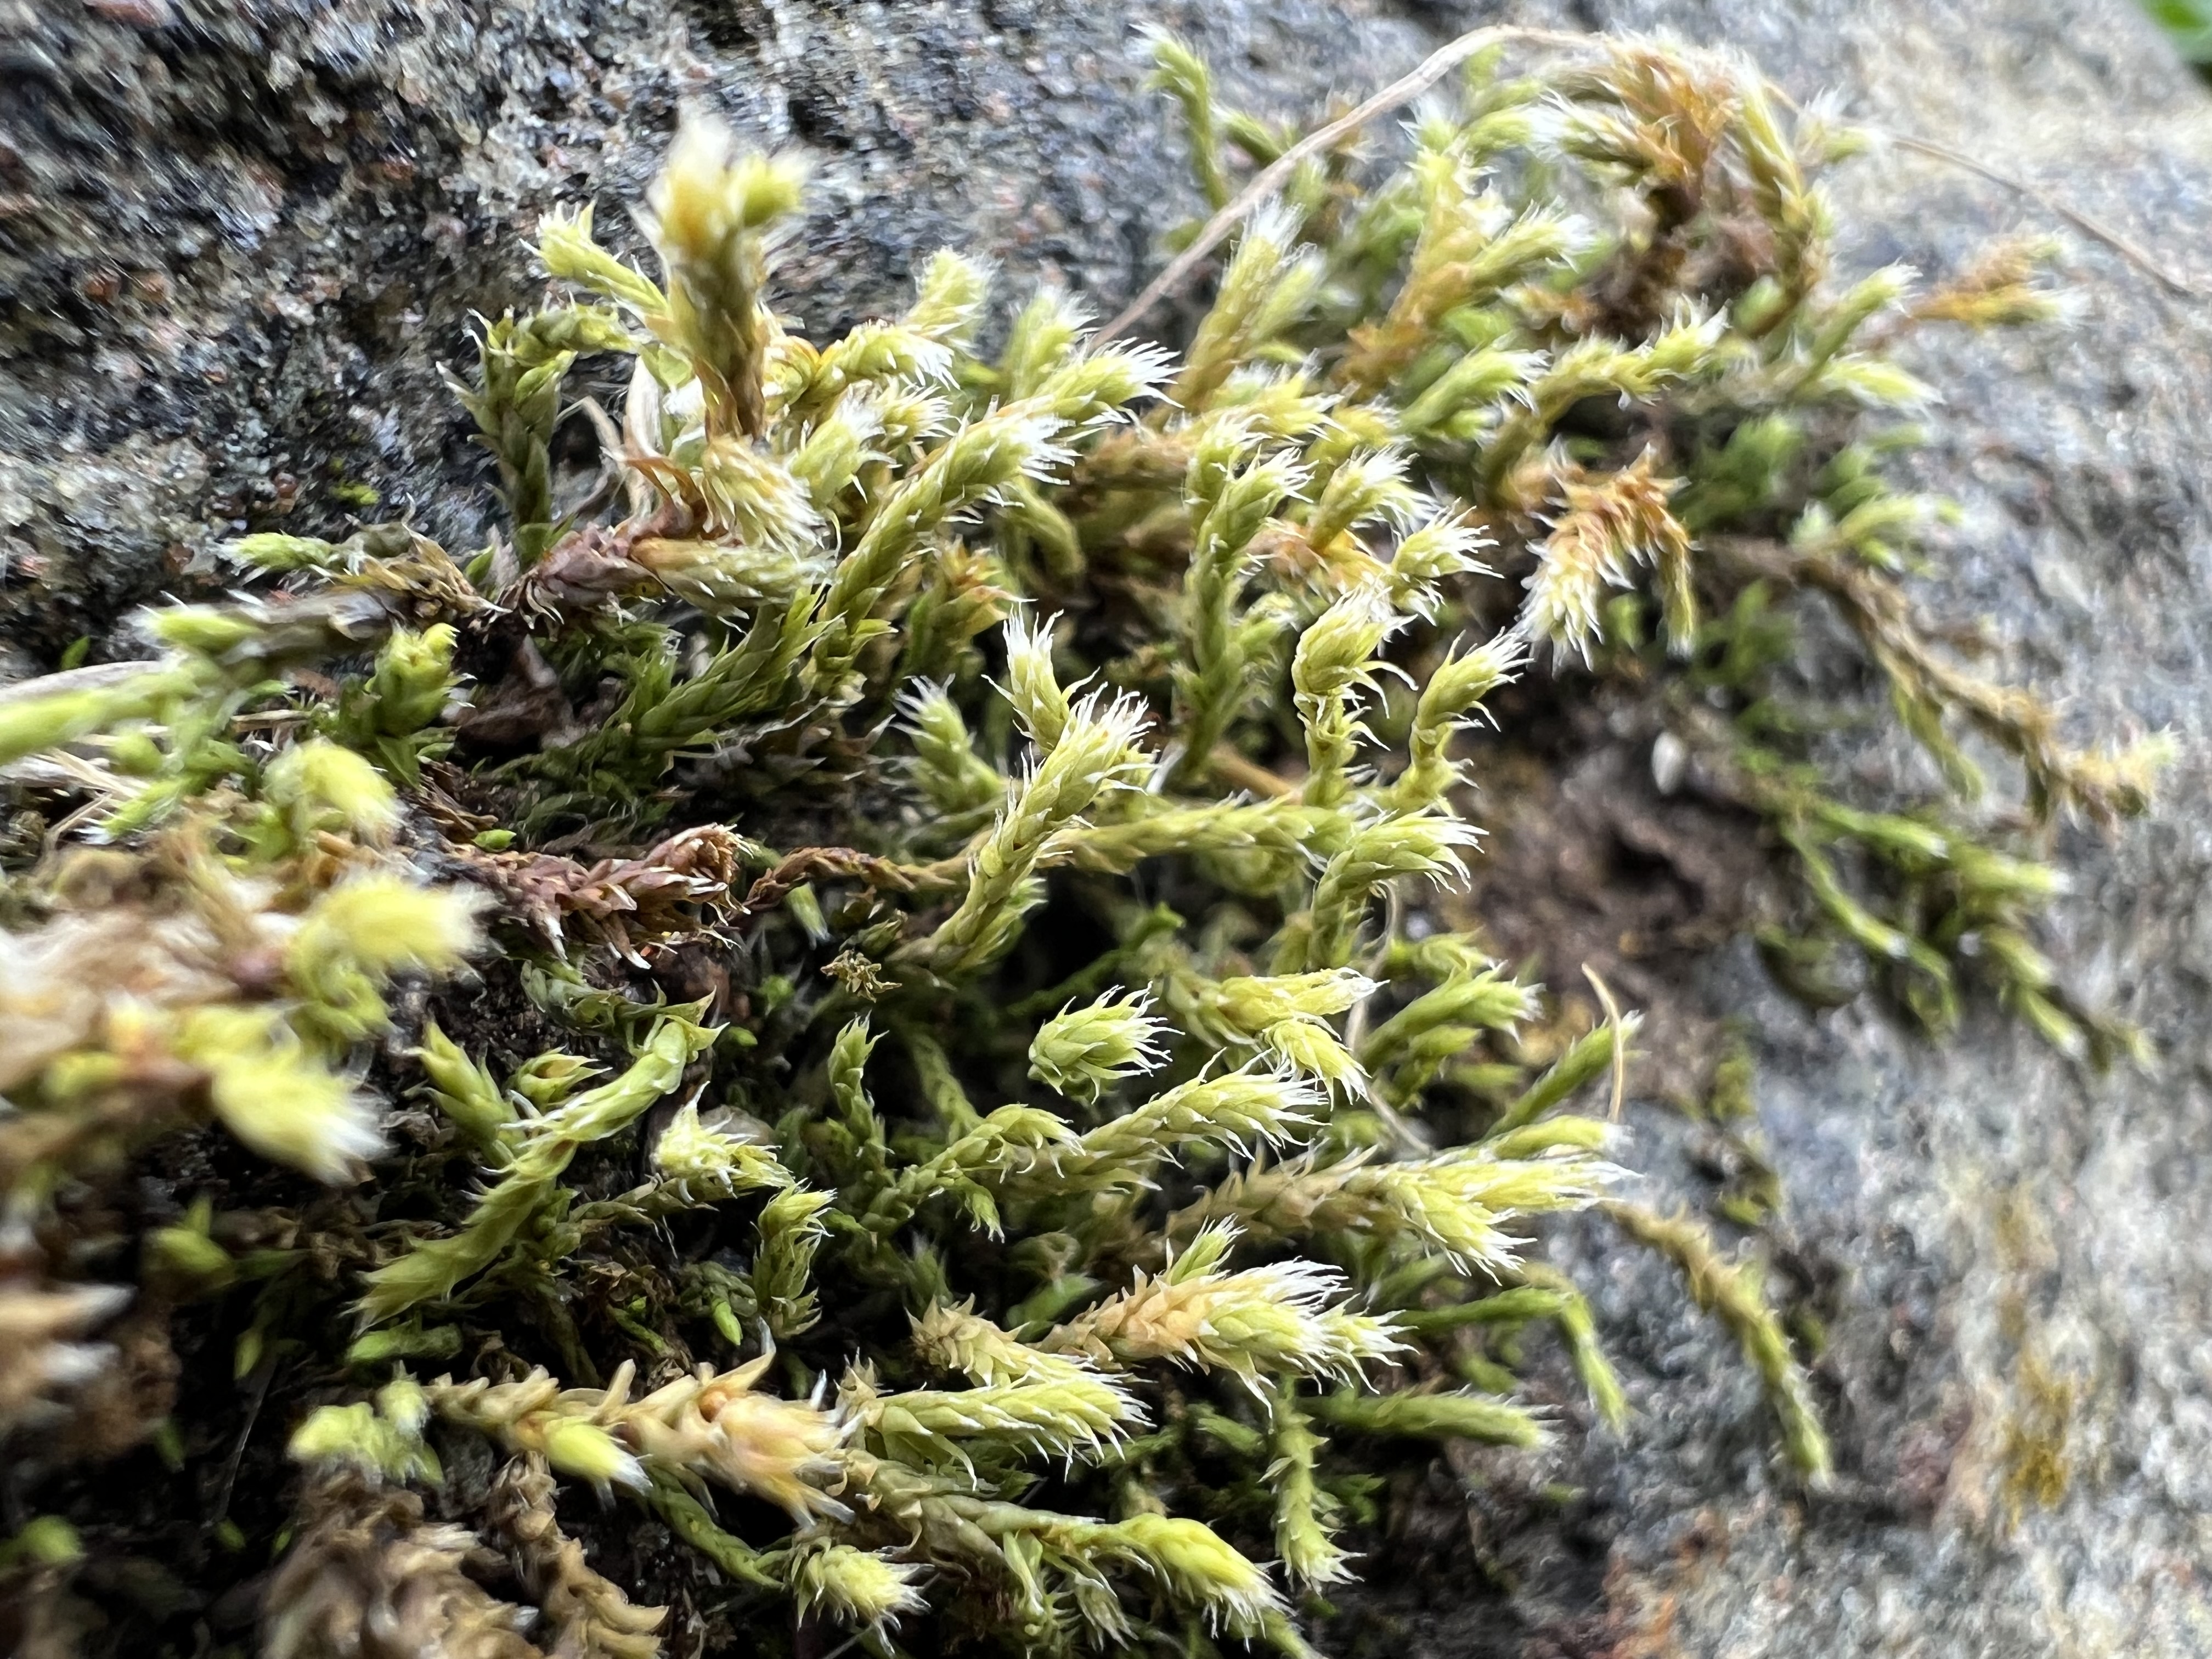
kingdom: Plantae
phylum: Bryophyta
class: Bryopsida
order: Hedwigiales
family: Hedwigiaceae
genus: Hedwigia
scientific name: Hedwigia stellata
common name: Stjernebladet hedwigia
